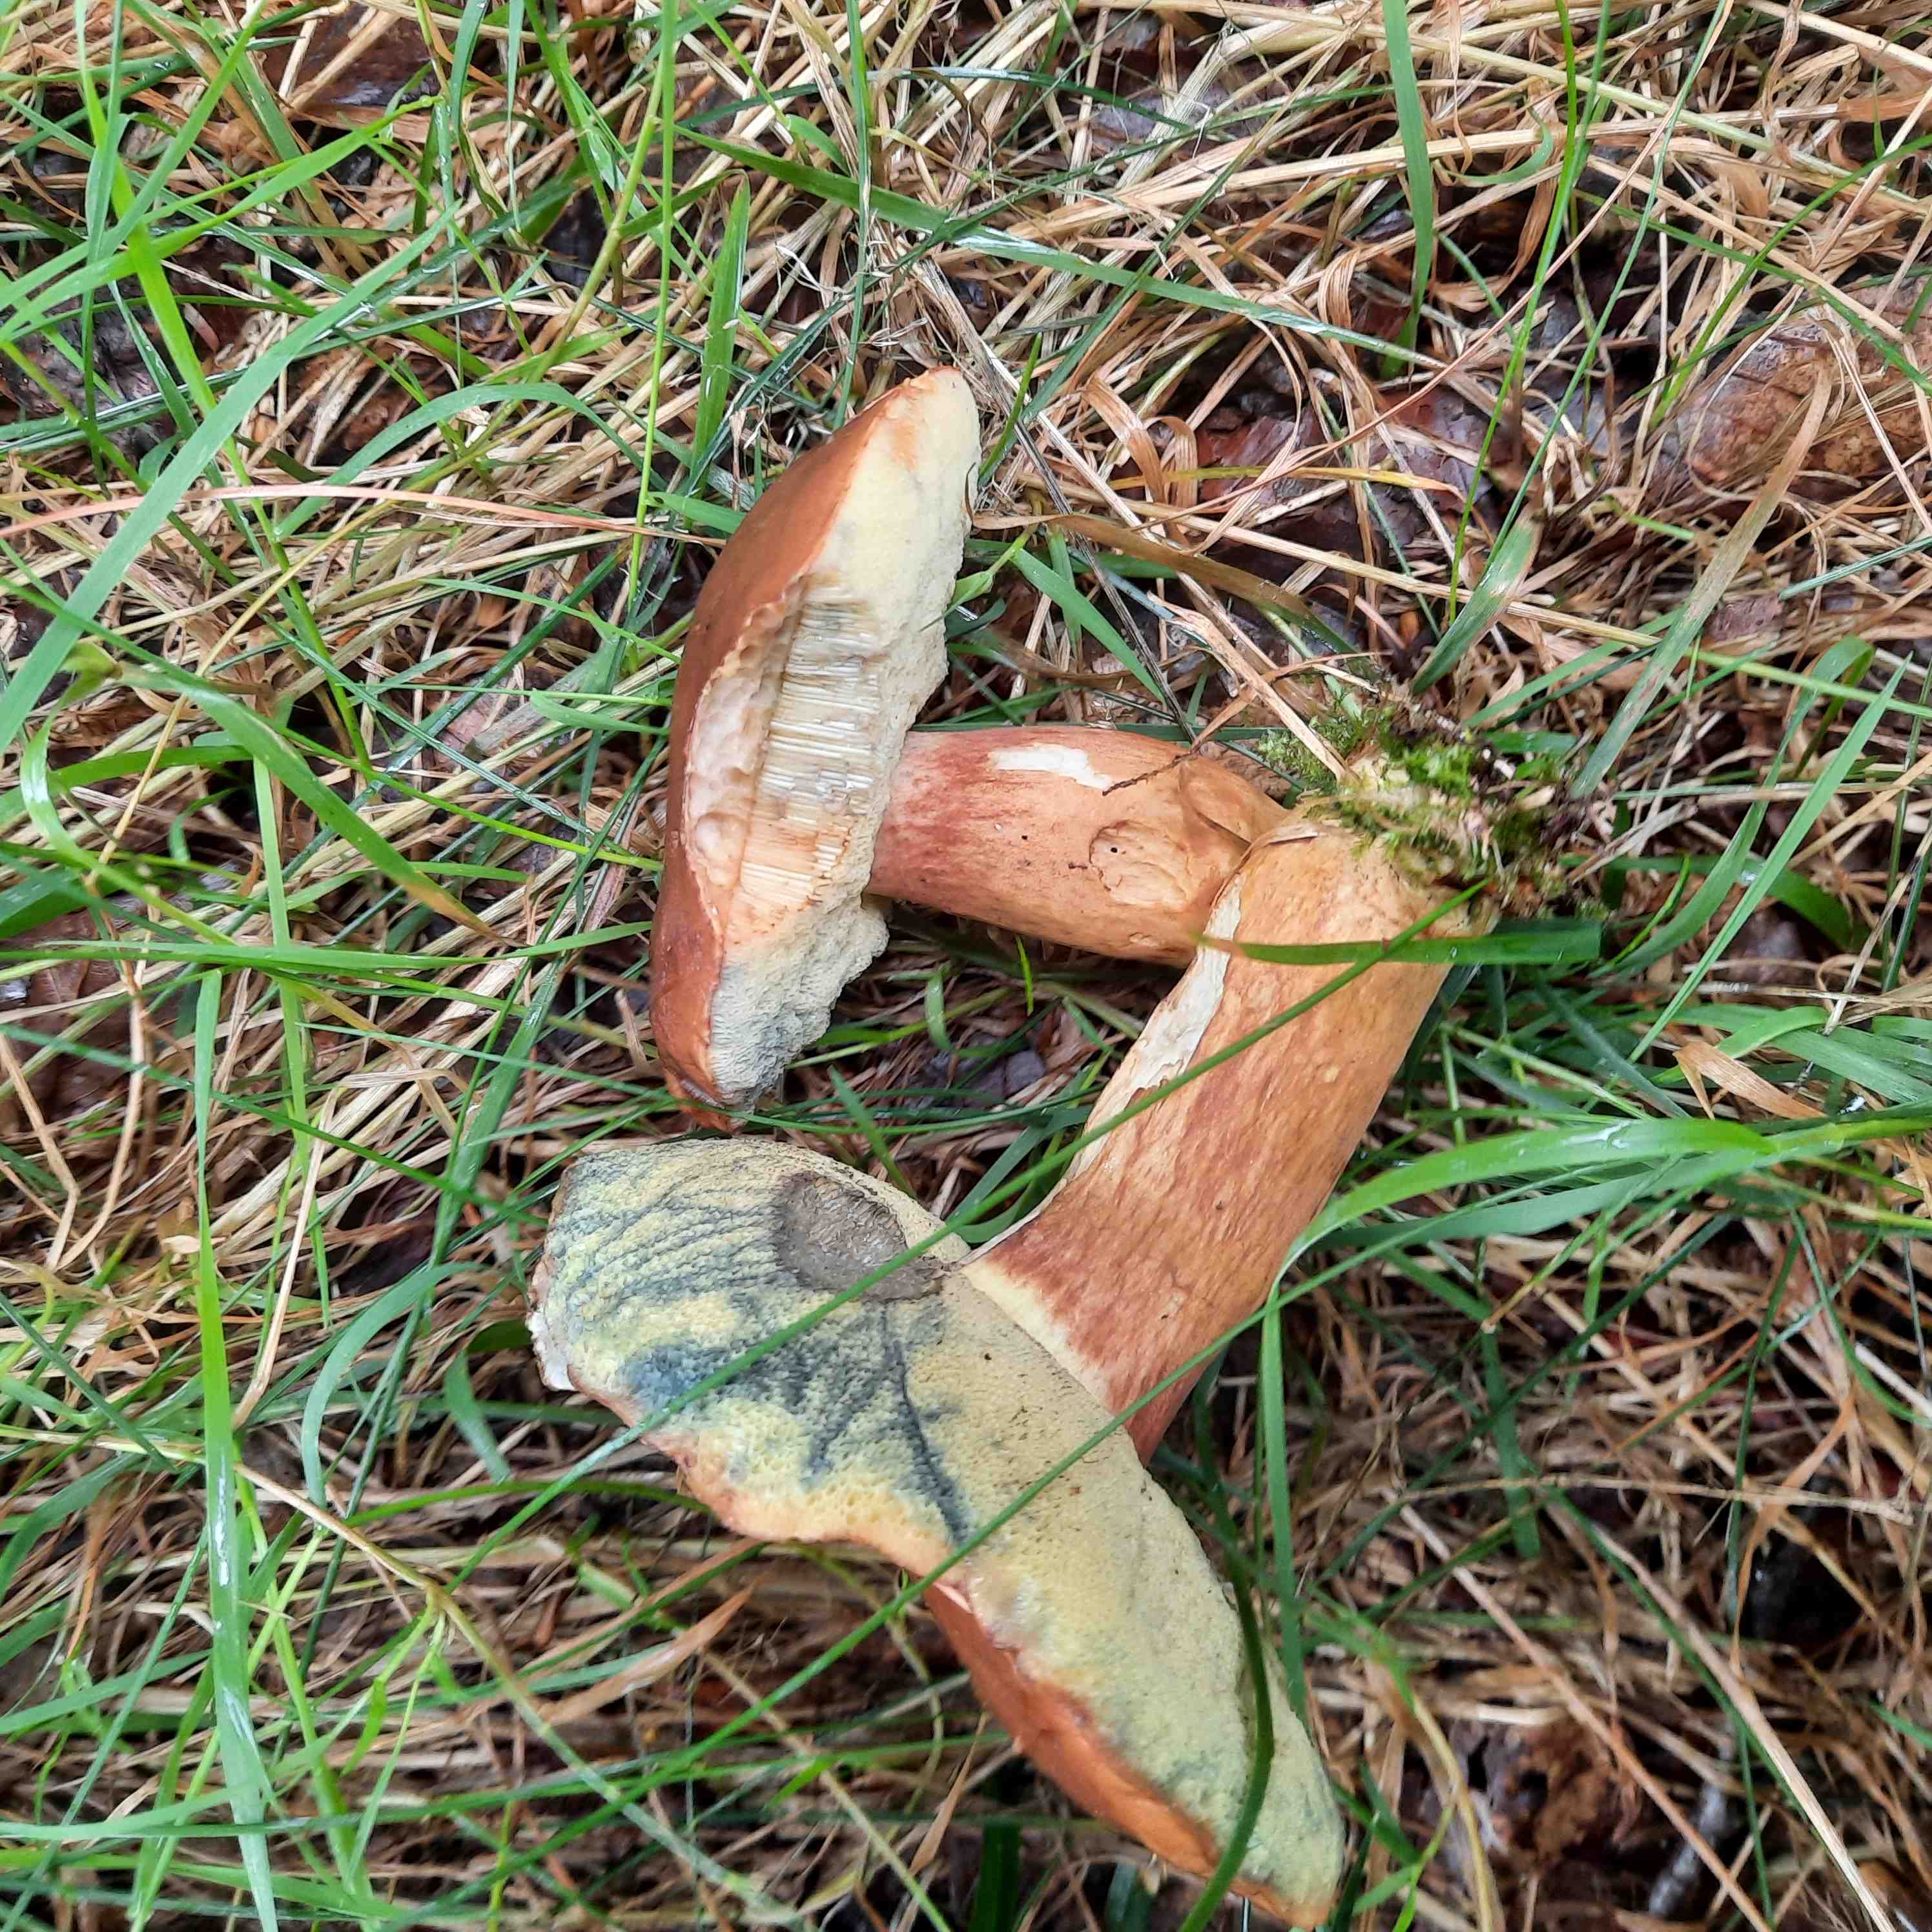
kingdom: Fungi
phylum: Basidiomycota
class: Agaricomycetes
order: Boletales
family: Boletaceae
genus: Imleria
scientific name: Imleria badia
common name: brunstokket rørhat
